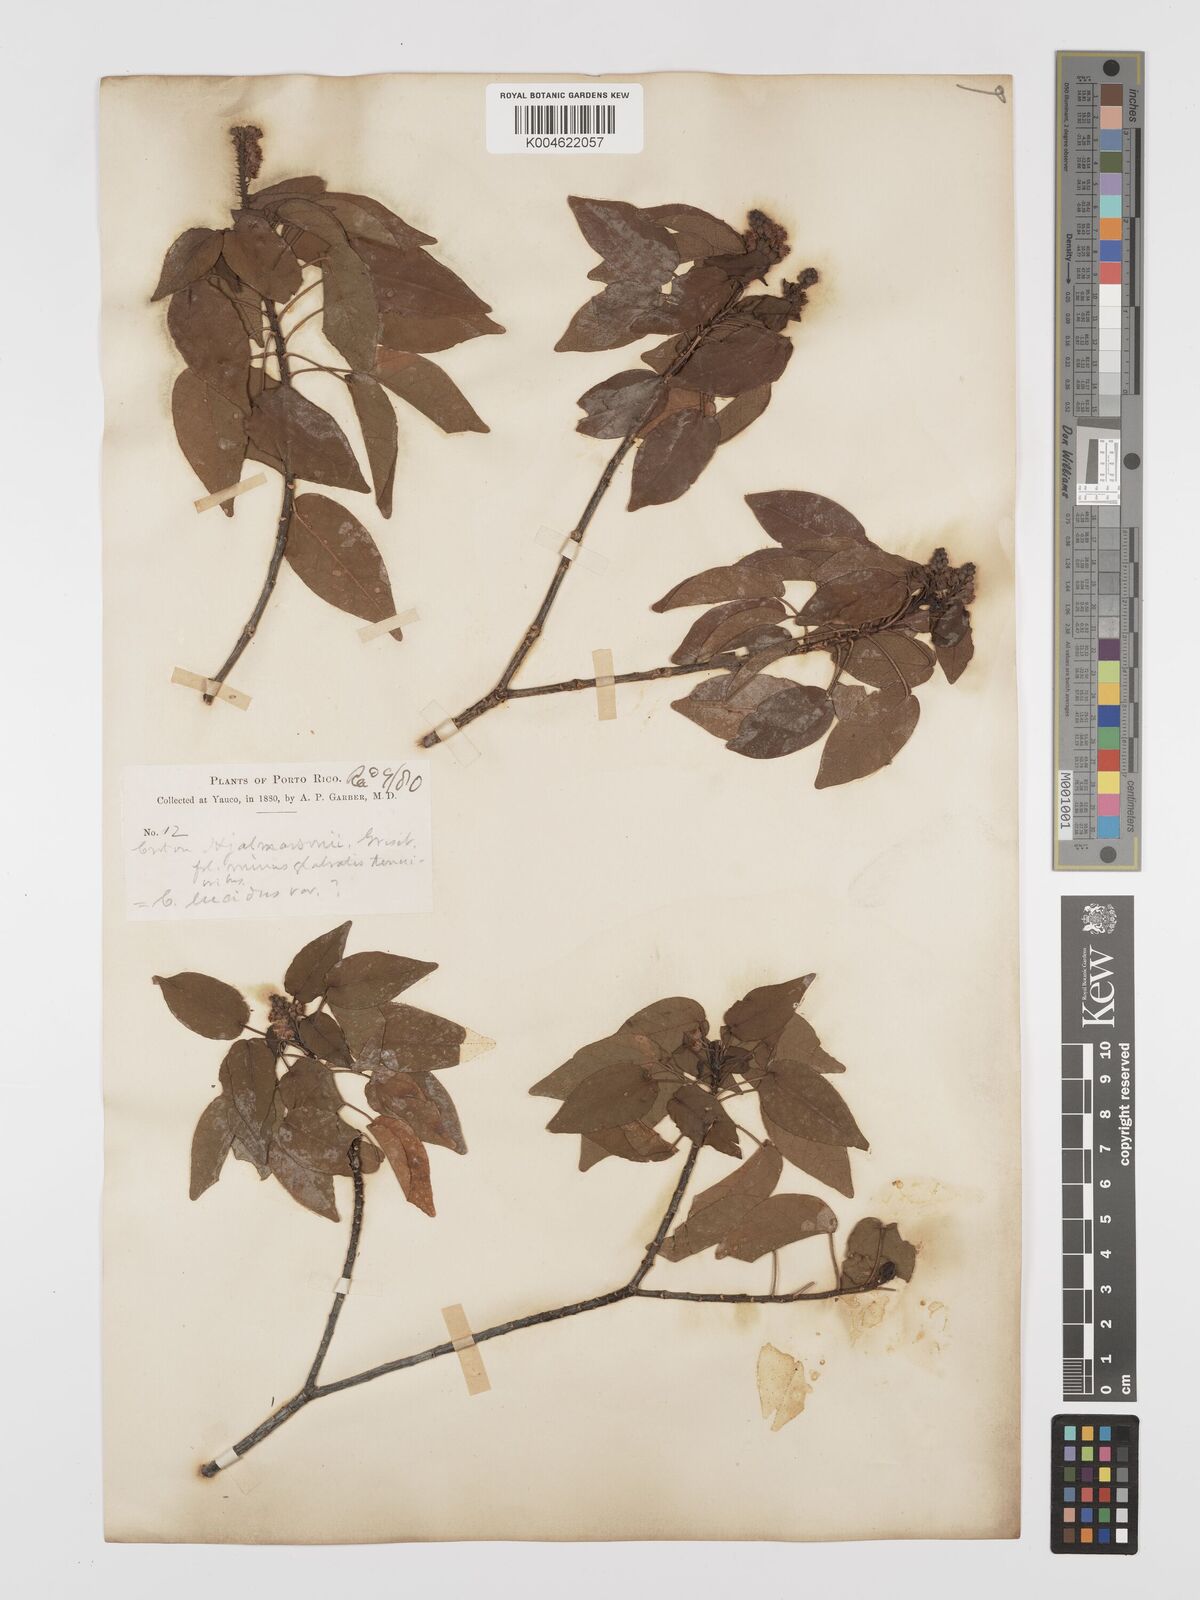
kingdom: Plantae
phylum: Tracheophyta
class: Magnoliopsida
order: Malpighiales
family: Euphorbiaceae
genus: Croton
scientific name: Croton glabellus
